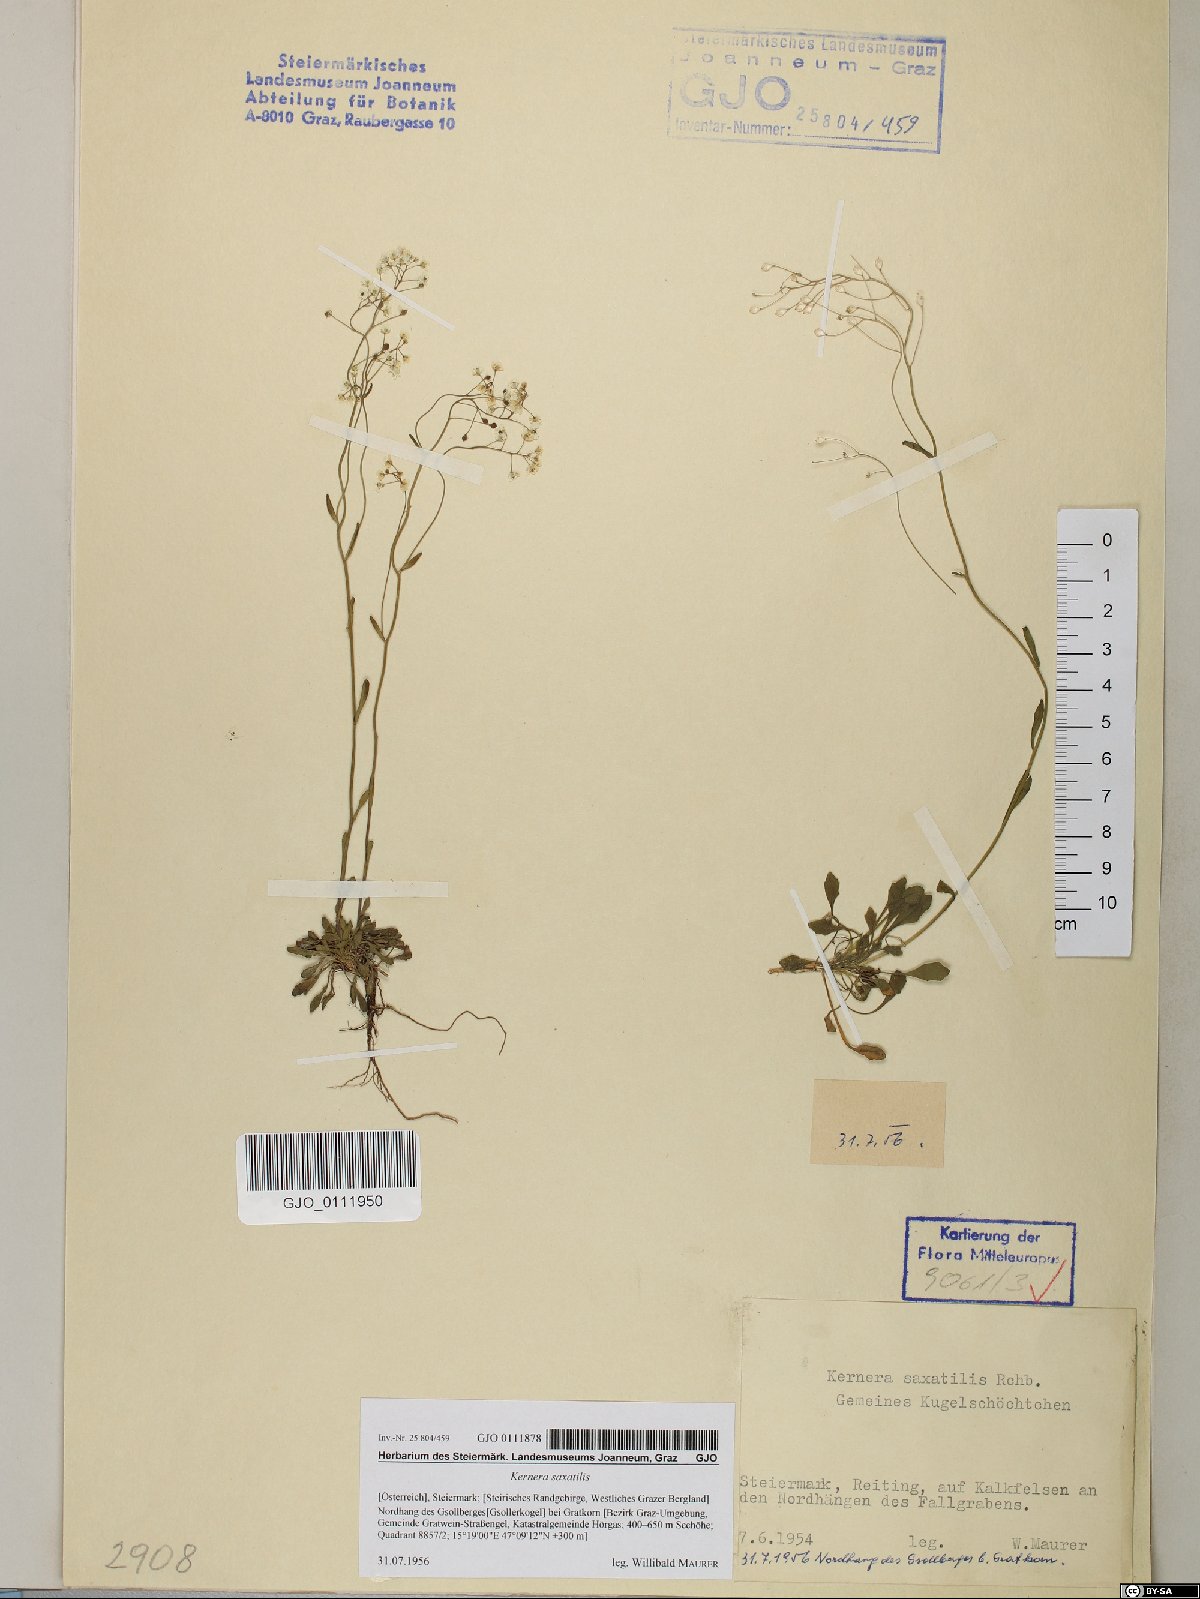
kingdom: Plantae
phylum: Tracheophyta
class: Magnoliopsida
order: Brassicales
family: Brassicaceae
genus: Kernera
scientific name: Kernera saxatilis
